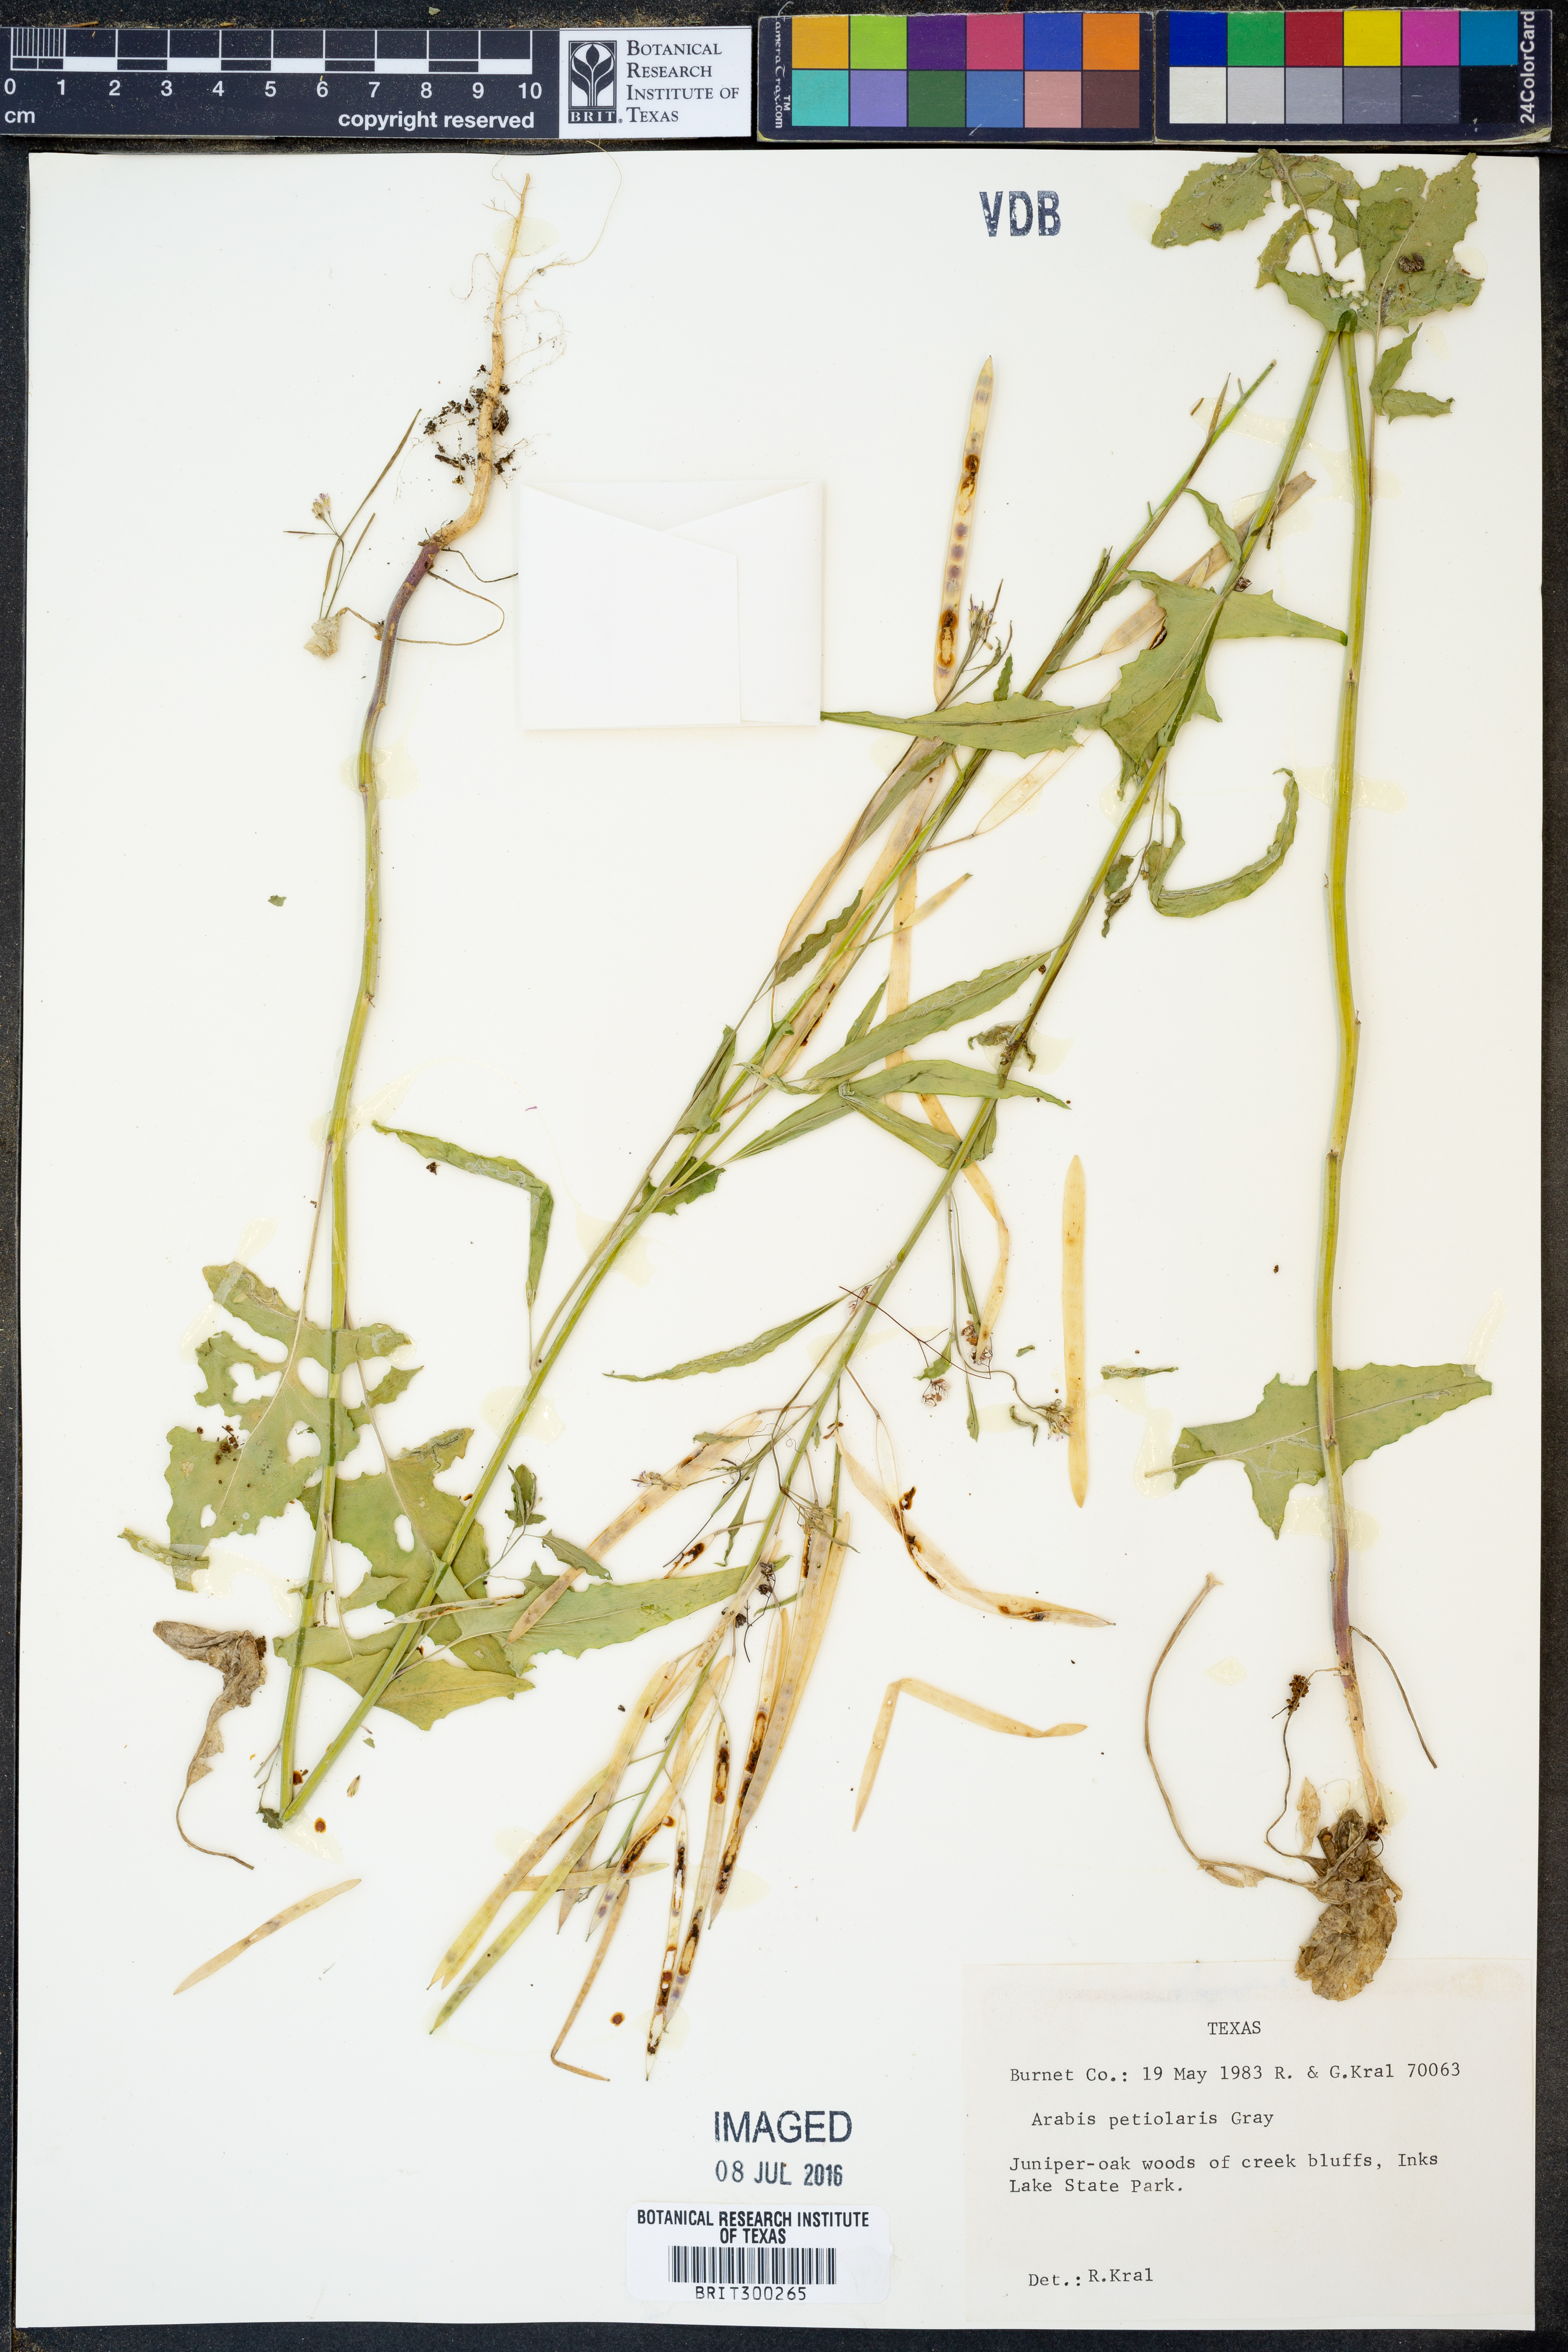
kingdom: Plantae
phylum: Tracheophyta
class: Magnoliopsida
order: Brassicales
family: Brassicaceae
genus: Streptanthus
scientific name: Streptanthus petiolaris
